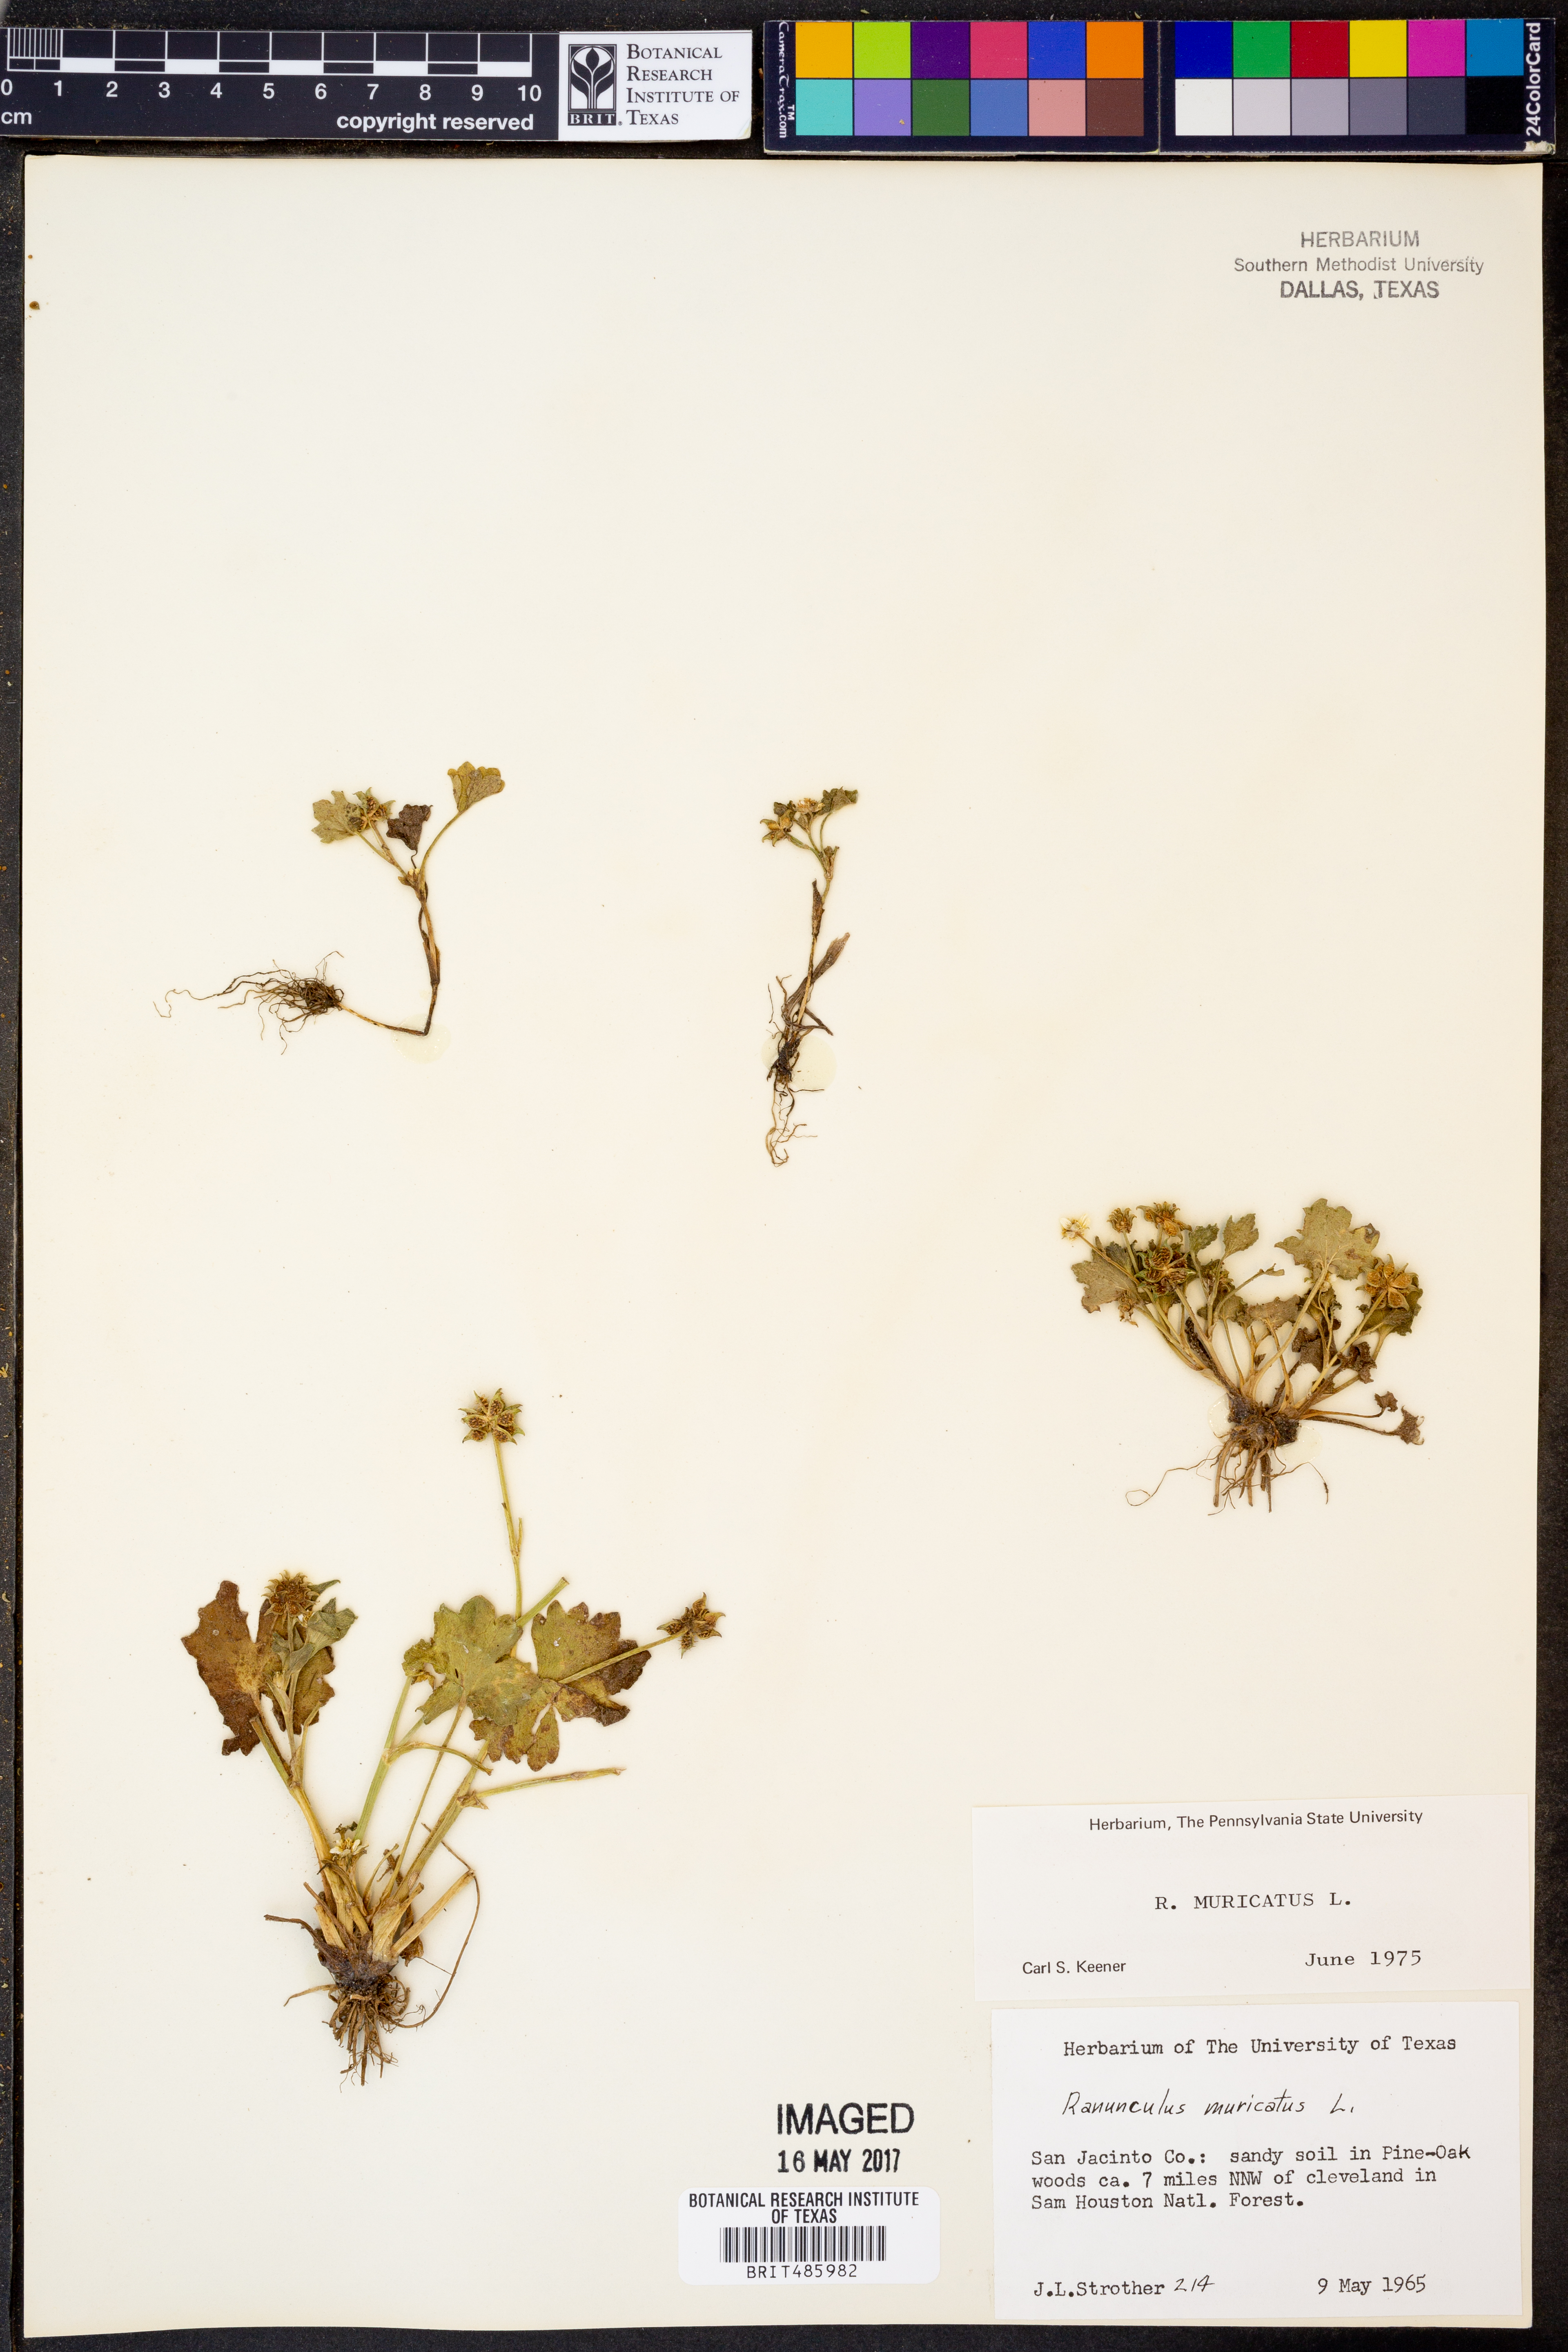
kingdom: Plantae
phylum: Tracheophyta
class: Magnoliopsida
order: Ranunculales
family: Ranunculaceae
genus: Ranunculus
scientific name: Ranunculus muricatus
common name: Rough-fruited buttercup
